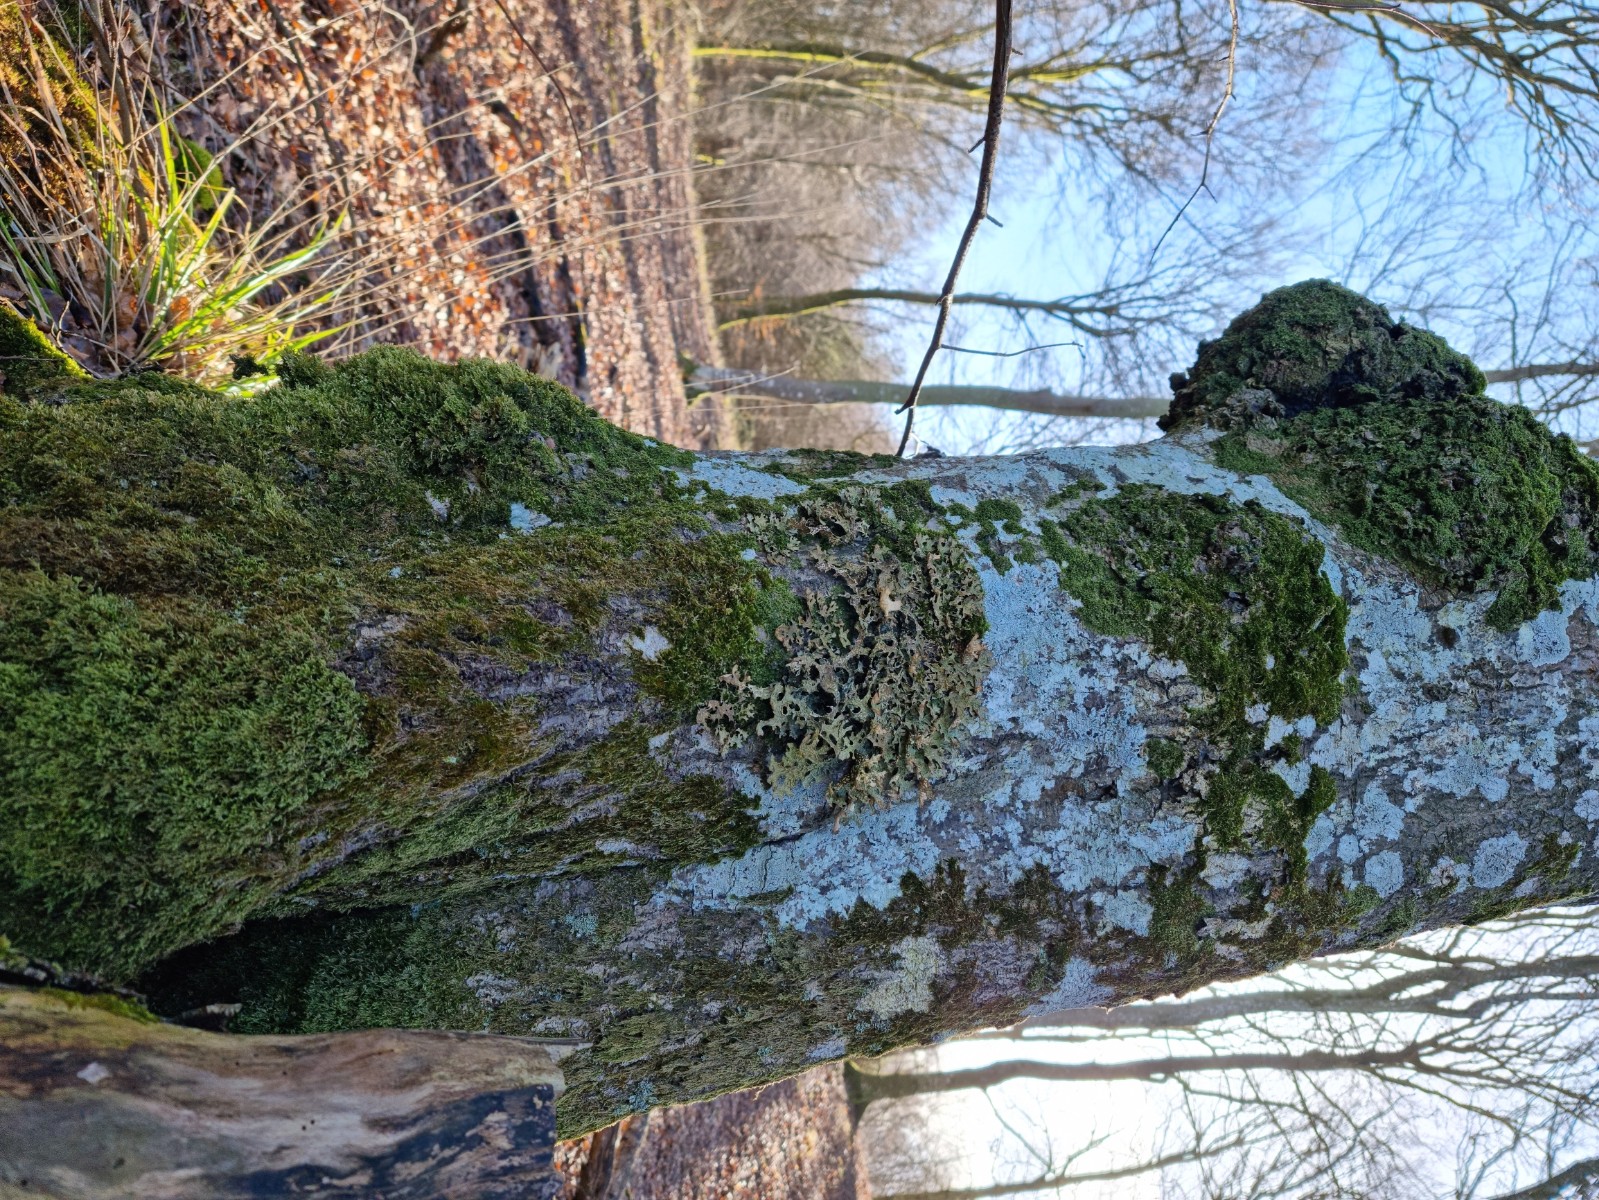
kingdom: Fungi
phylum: Ascomycota
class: Lecanoromycetes
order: Peltigerales
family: Lobariaceae
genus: Lobaria
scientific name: Lobaria pulmonaria
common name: almindelig lungelav
